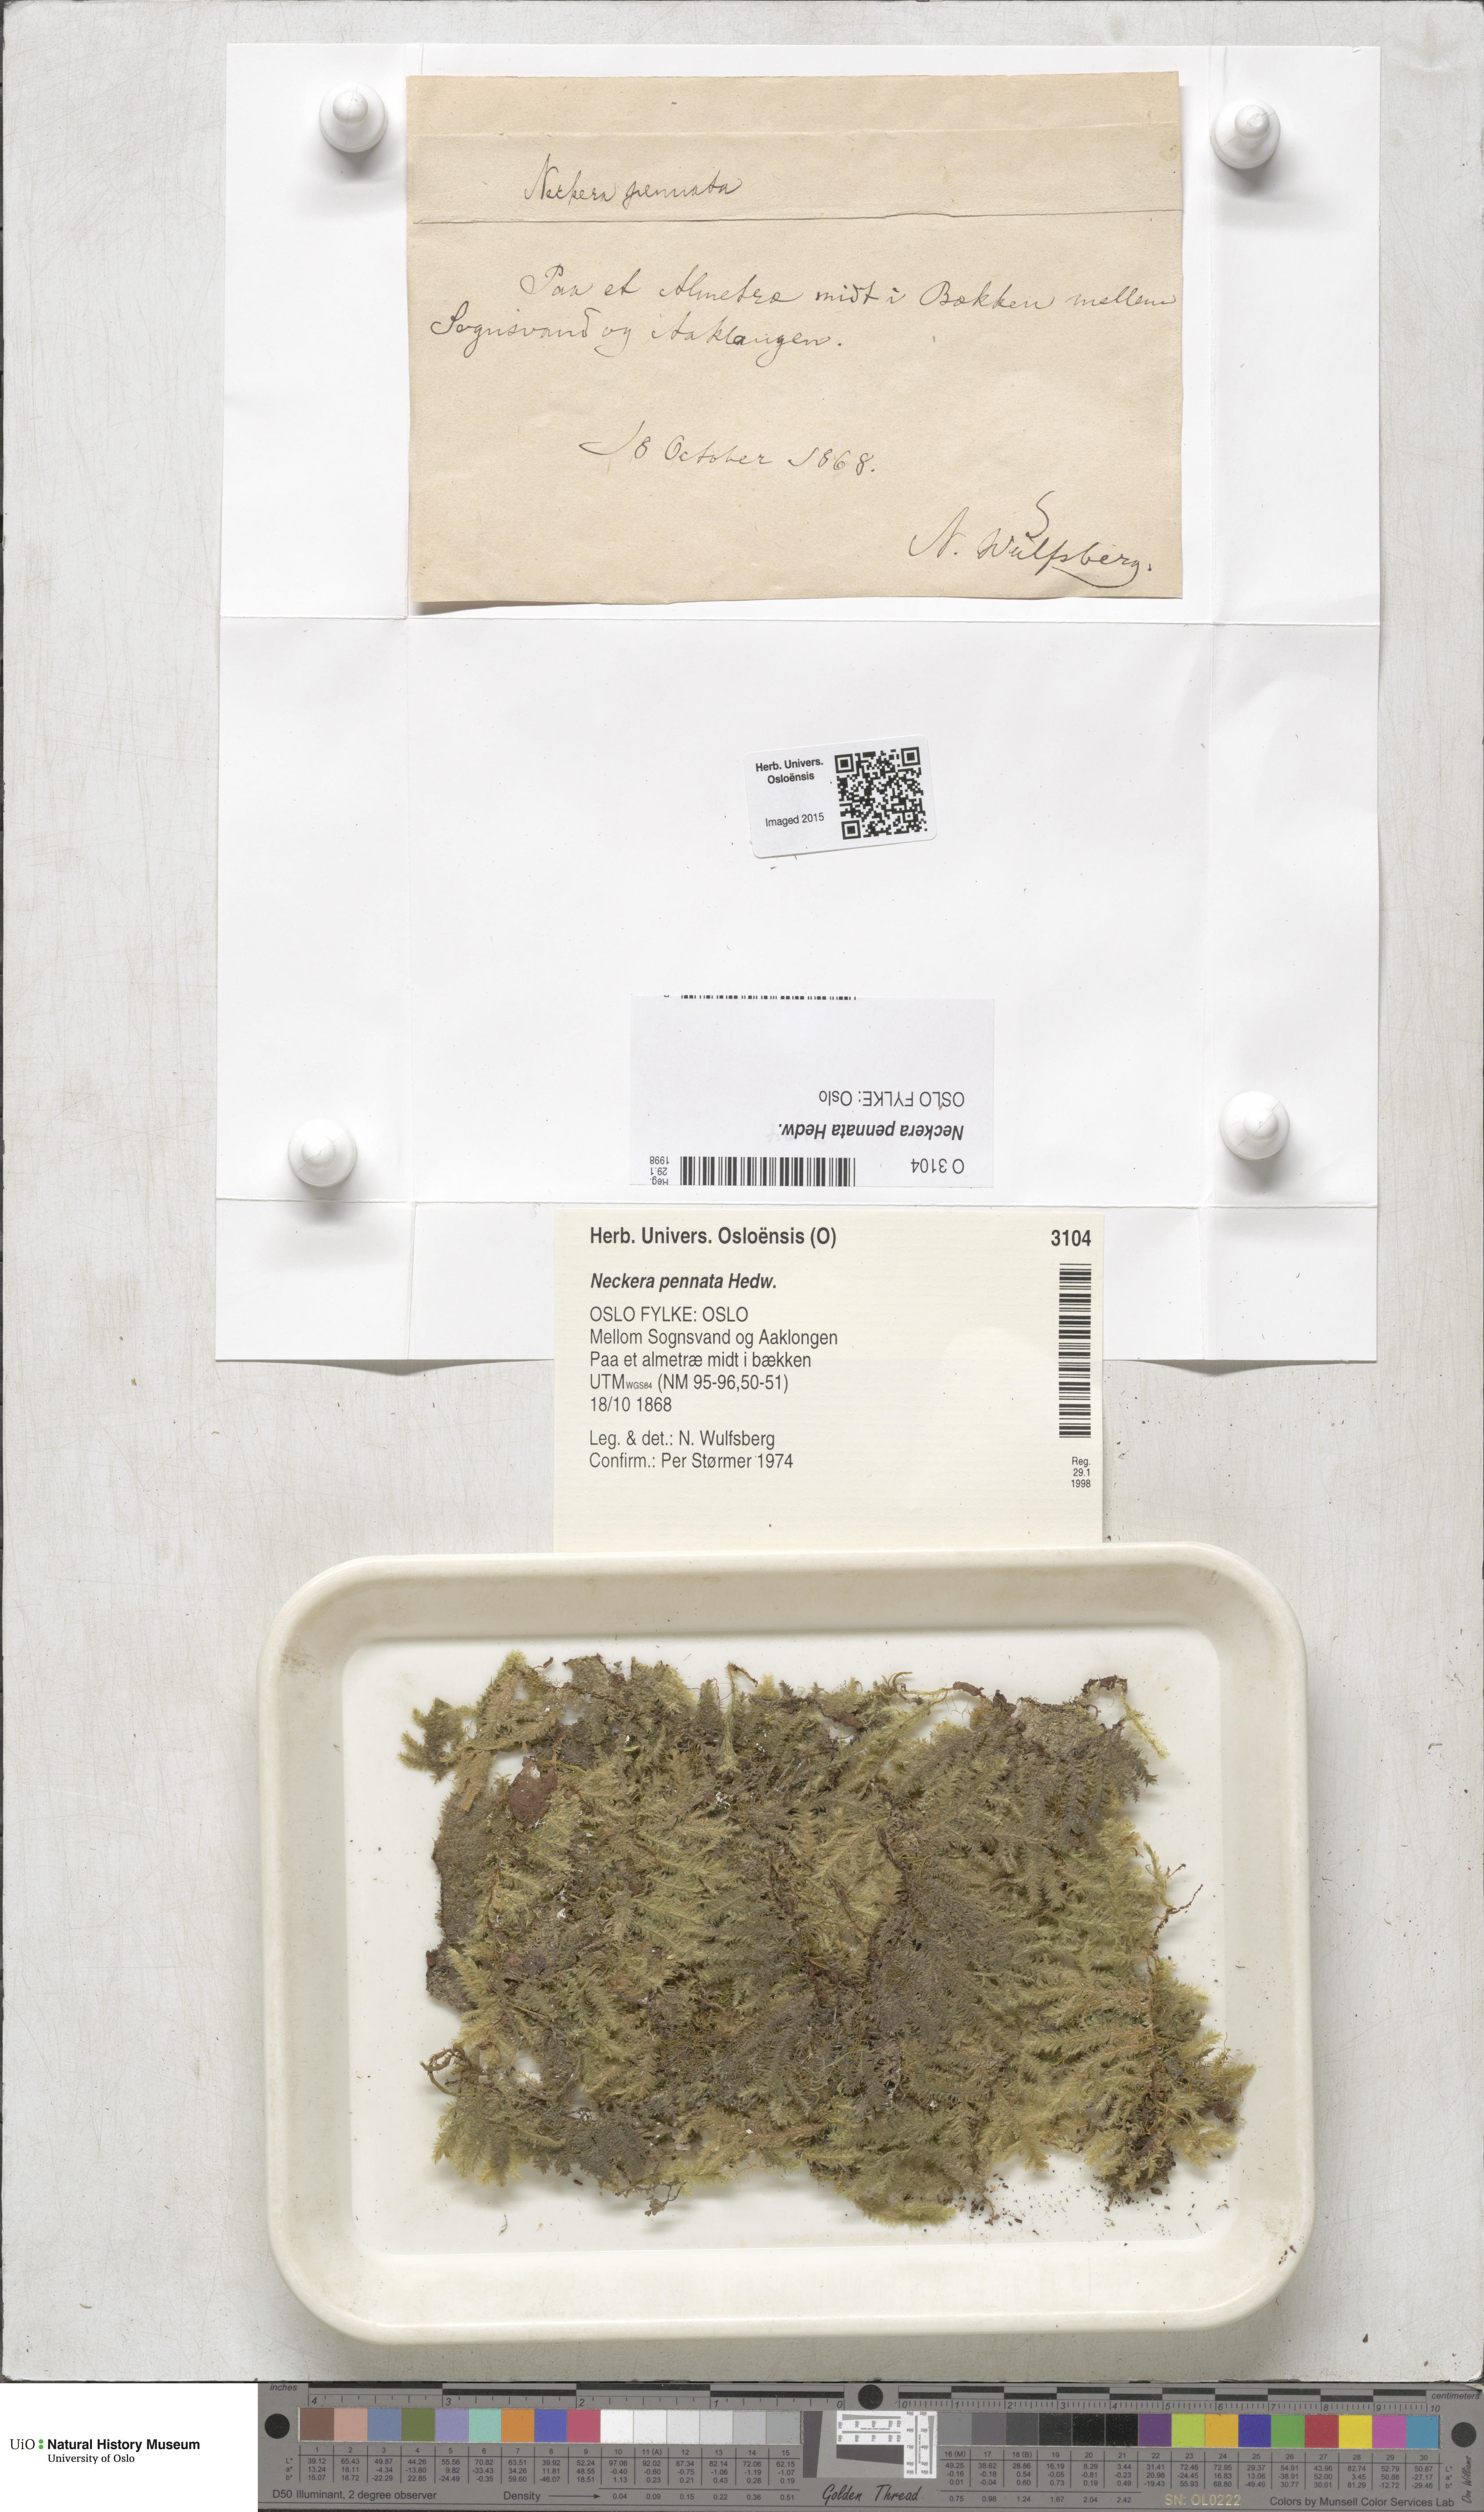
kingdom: Plantae
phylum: Bryophyta
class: Bryopsida
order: Hypnales
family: Neckeraceae
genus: Neckera
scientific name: Neckera pennata
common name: Feathery neckera
